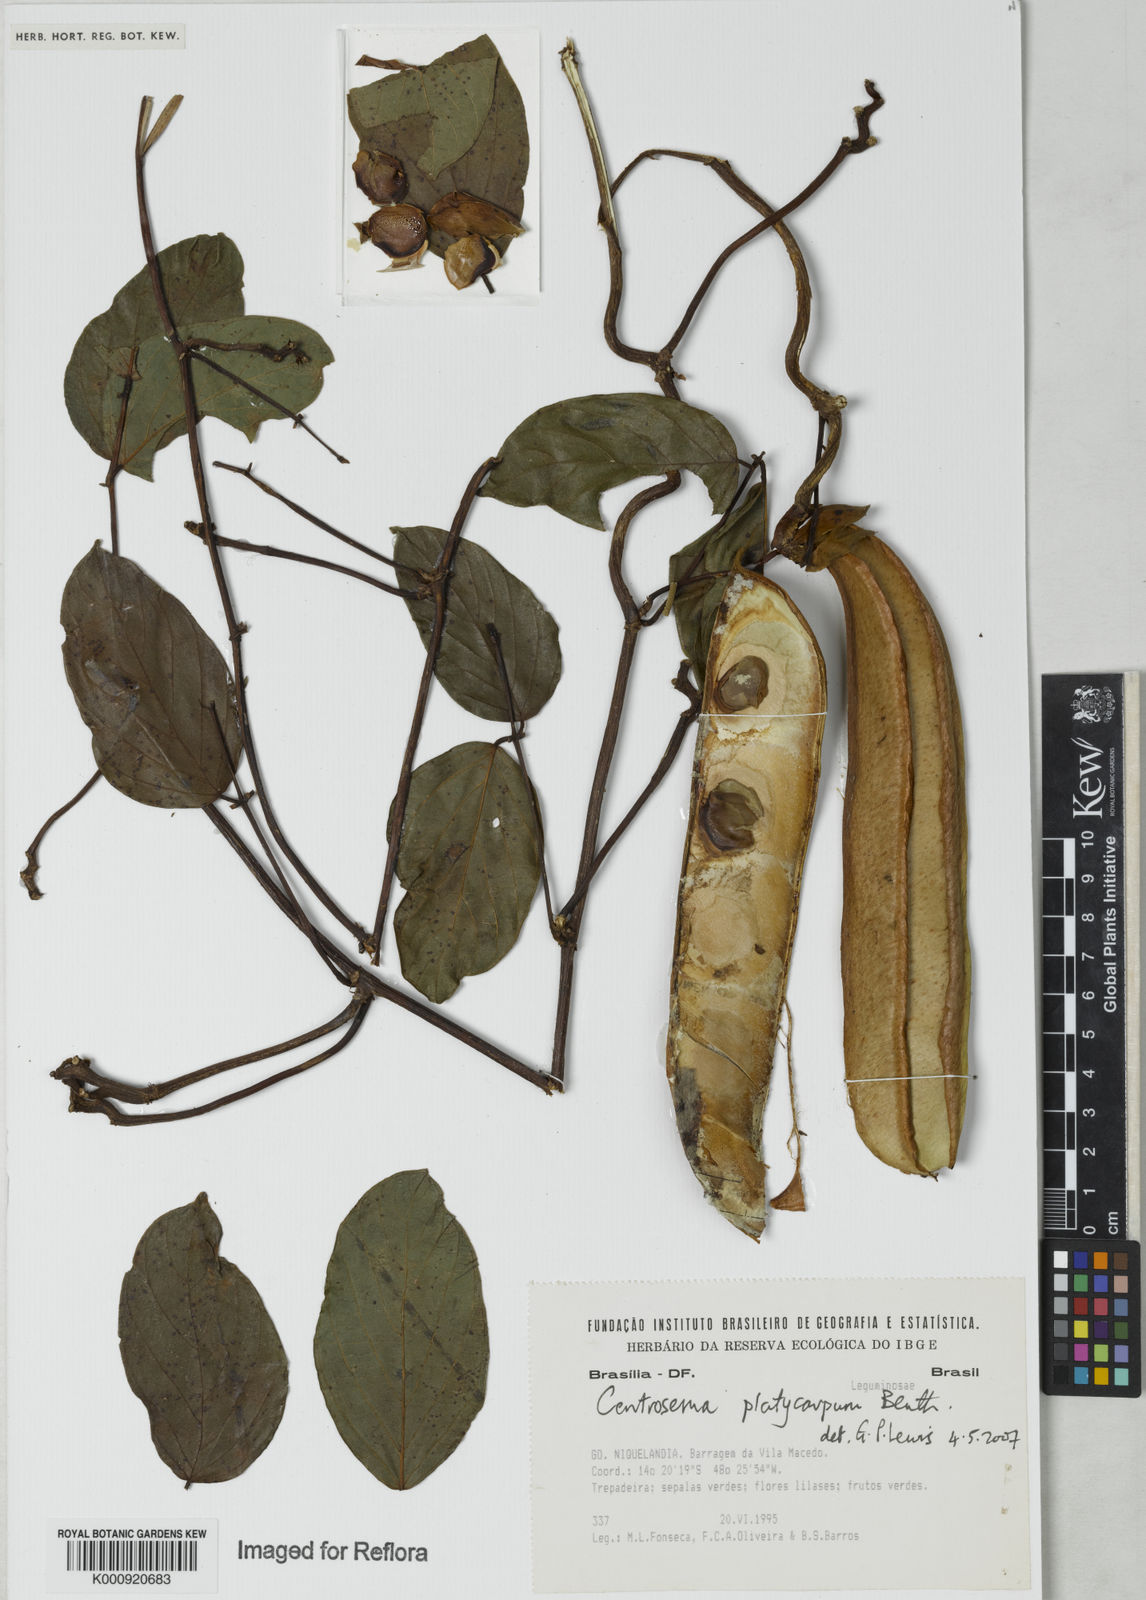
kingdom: Plantae
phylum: Tracheophyta
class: Magnoliopsida
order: Fabales
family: Fabaceae
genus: Centrosema
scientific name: Centrosema platycarpum
